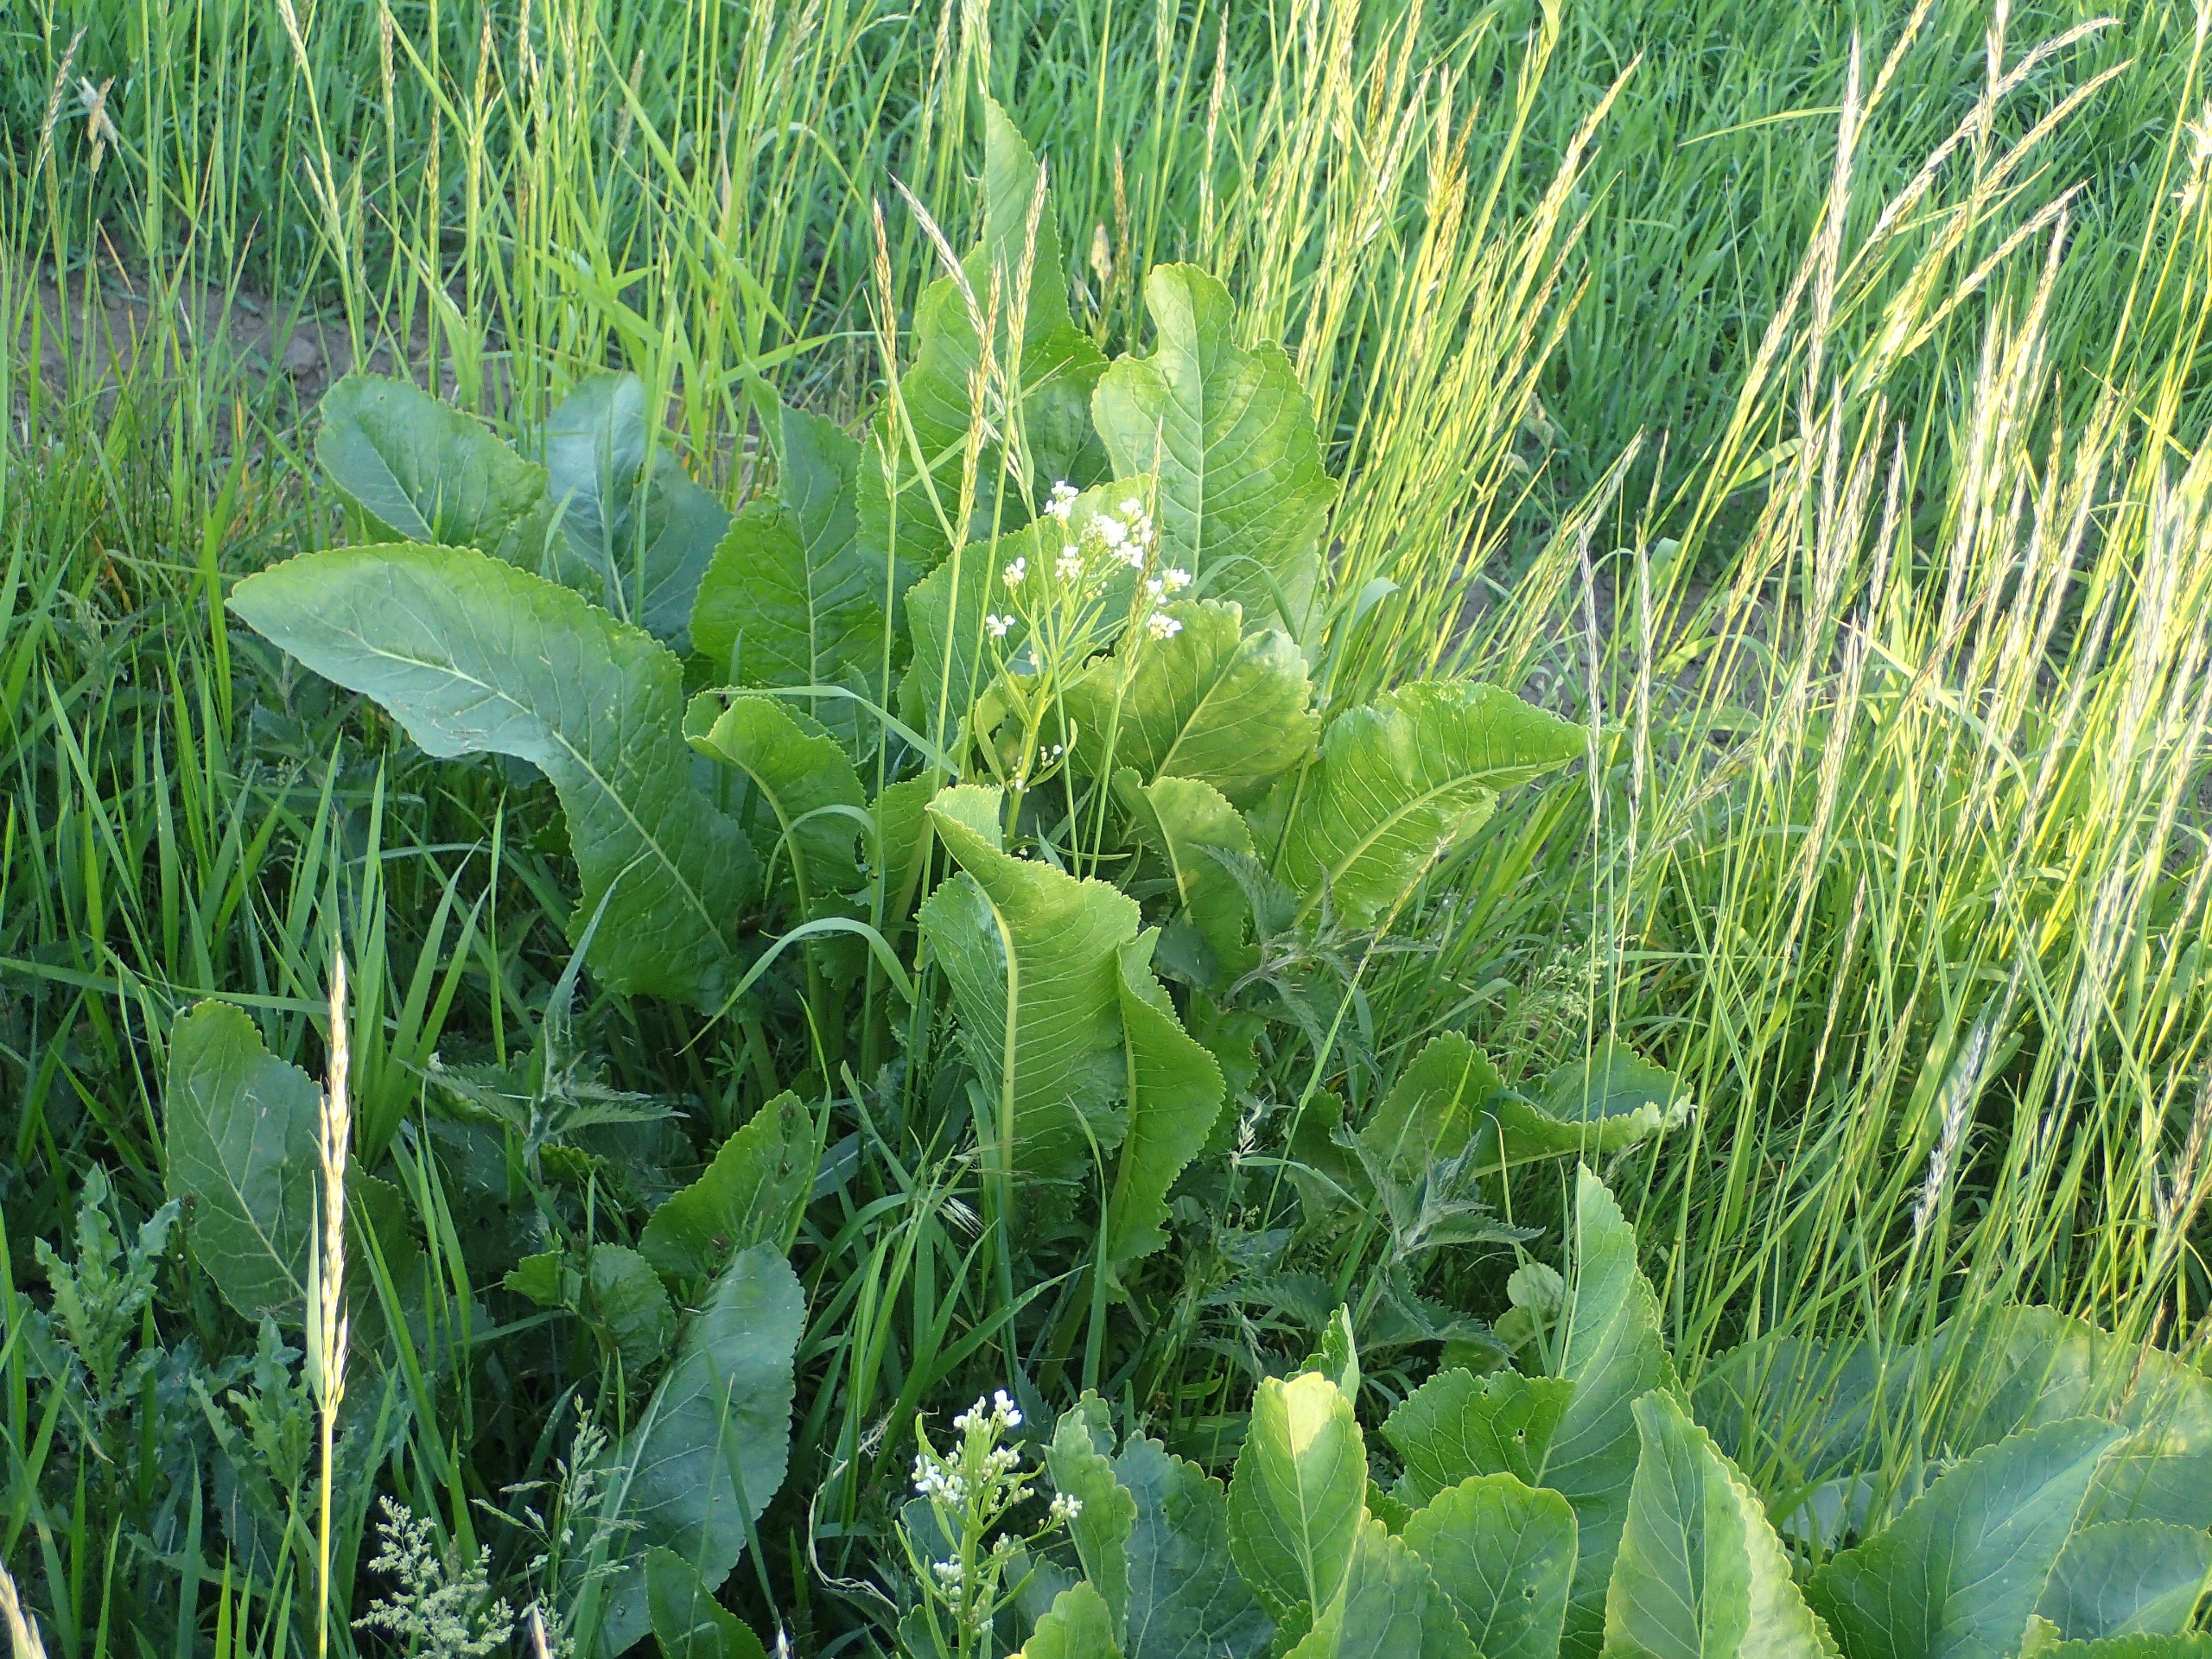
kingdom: Plantae
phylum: Tracheophyta
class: Magnoliopsida
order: Brassicales
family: Brassicaceae
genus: Armoracia
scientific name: Armoracia rusticana
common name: Peberrod
